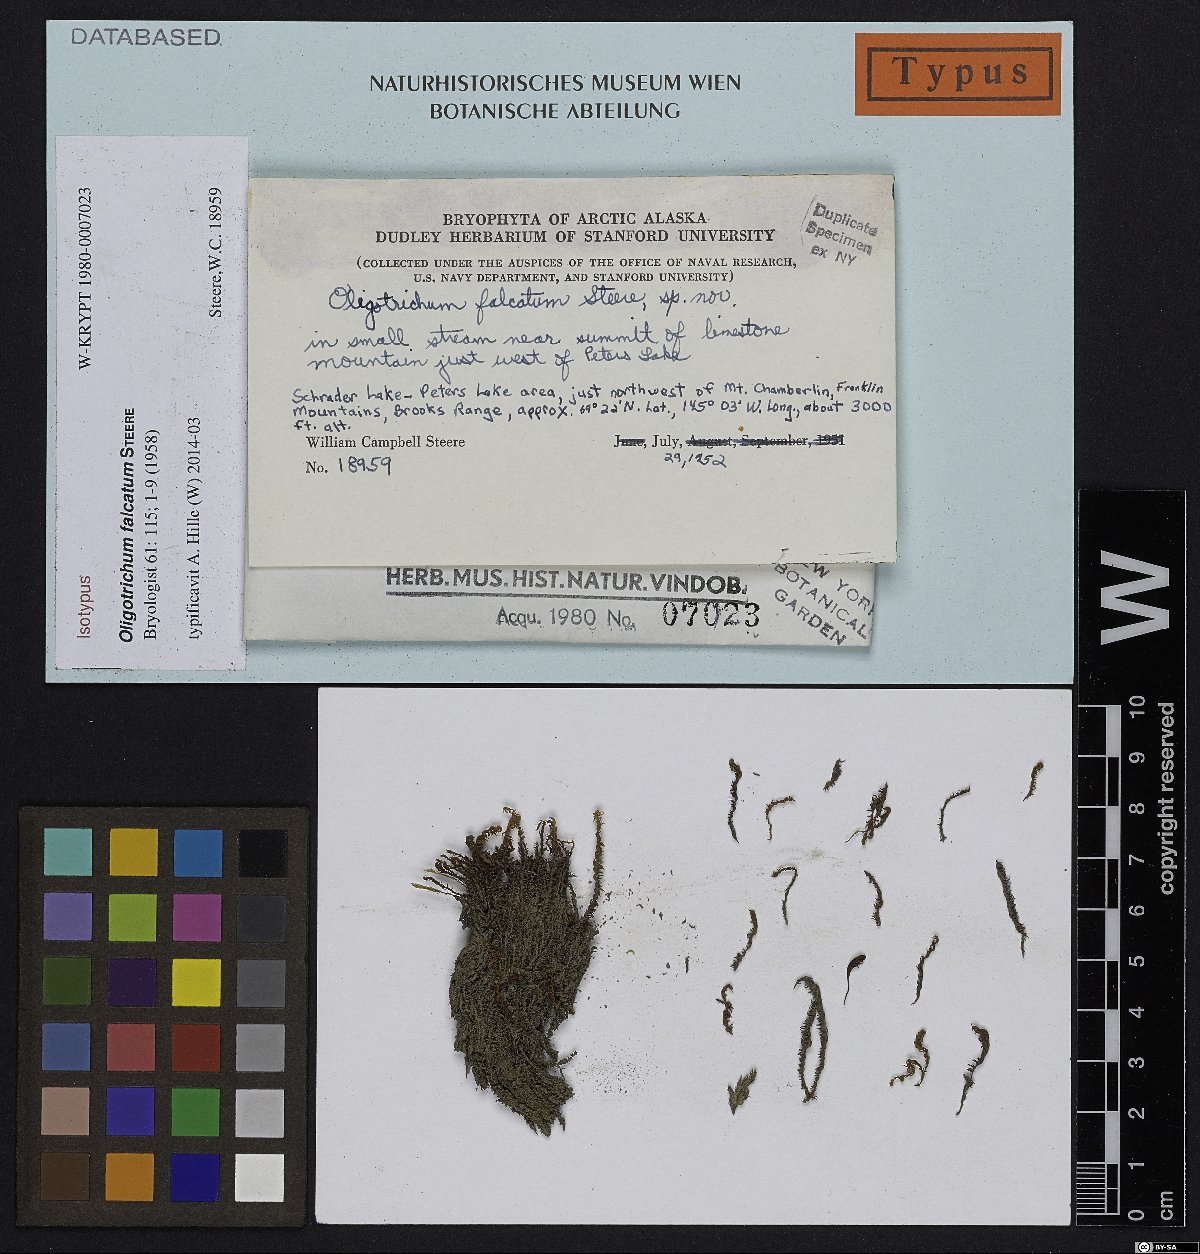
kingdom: Plantae
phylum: Bryophyta
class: Polytrichopsida
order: Polytrichales
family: Polytrichaceae
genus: Oligotrichum
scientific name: Oligotrichum falcatum
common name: Sickle-leaved hair moss
